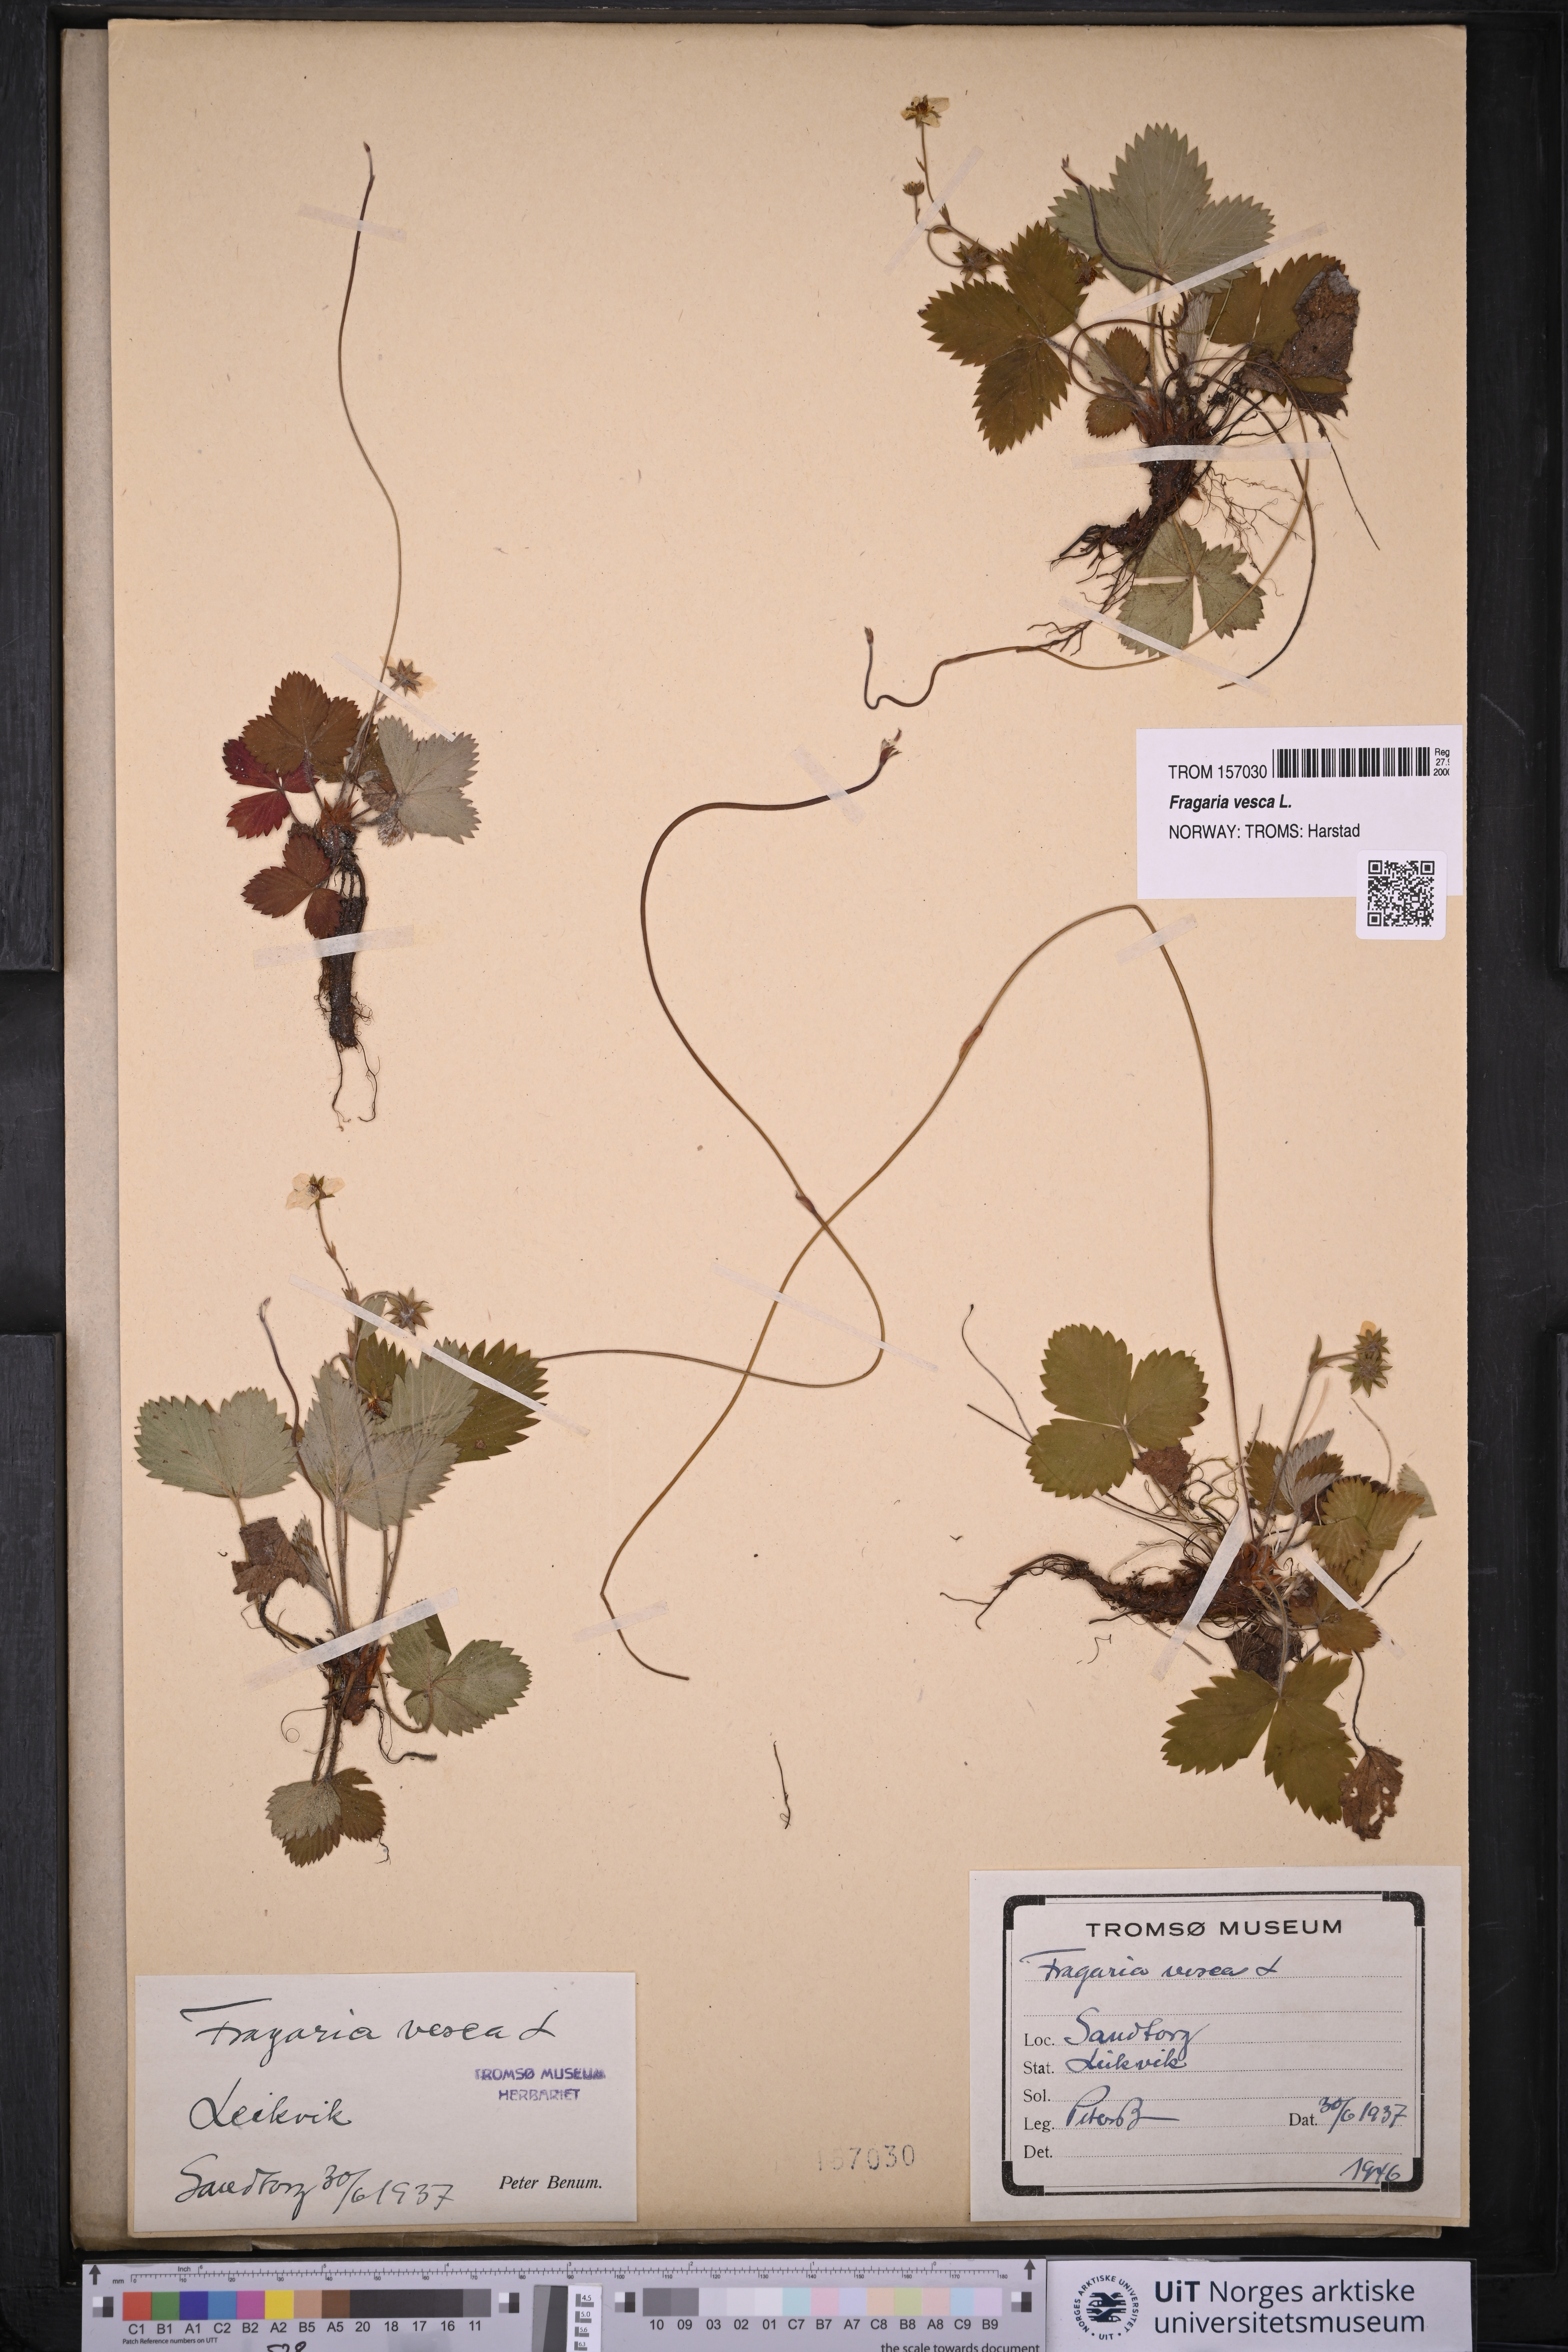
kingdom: Plantae
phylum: Tracheophyta
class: Magnoliopsida
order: Rosales
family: Rosaceae
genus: Fragaria
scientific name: Fragaria vesca
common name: Wild strawberry
